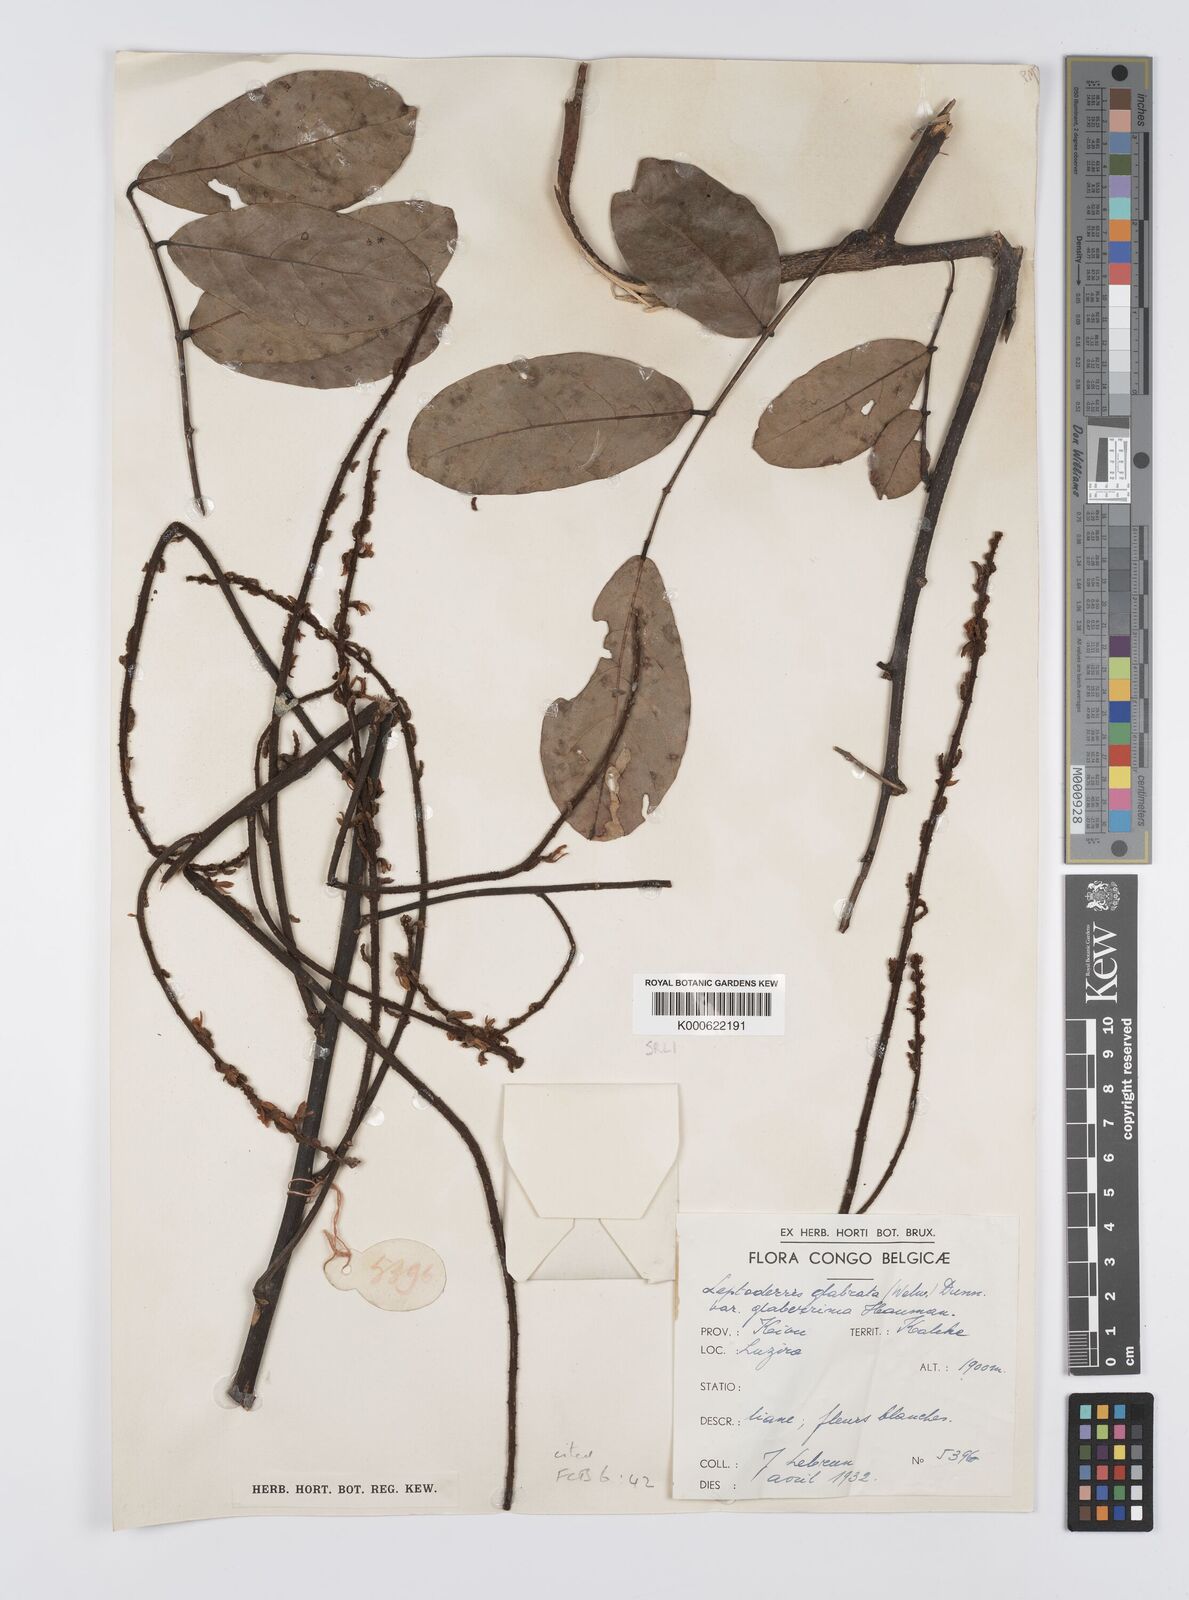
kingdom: Plantae
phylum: Tracheophyta
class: Magnoliopsida
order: Fabales
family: Fabaceae
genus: Leptoderris
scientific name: Leptoderris
